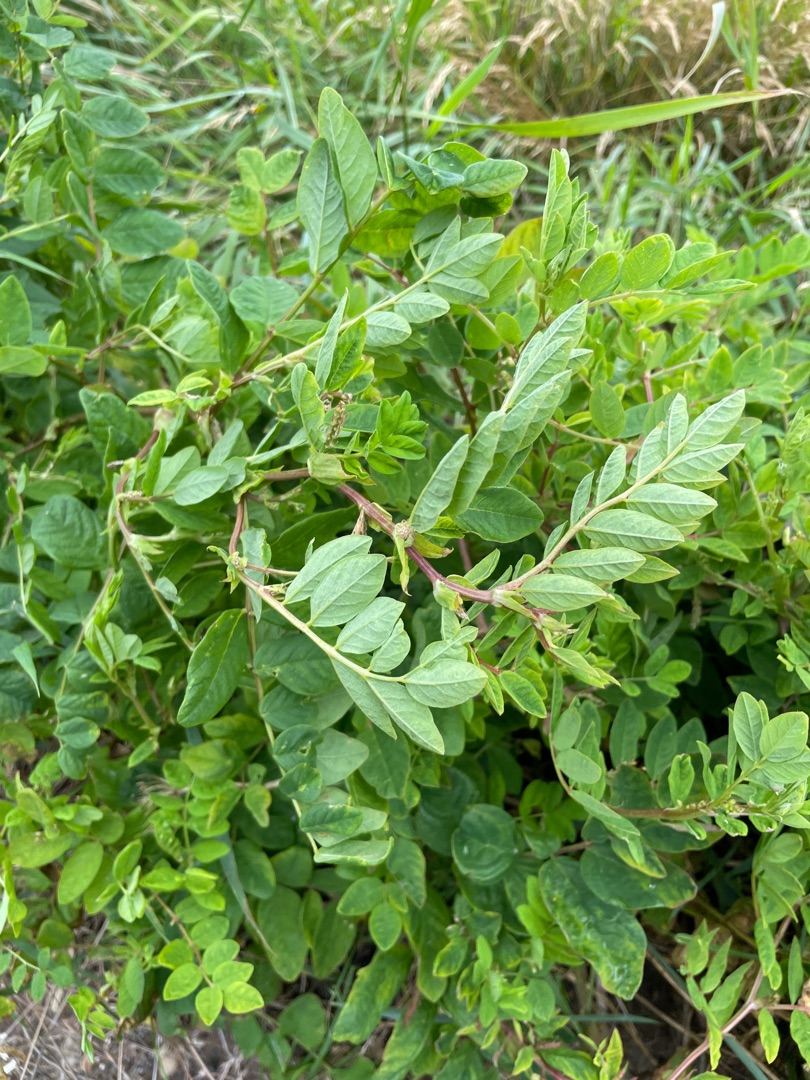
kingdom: Plantae
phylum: Tracheophyta
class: Magnoliopsida
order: Fabales
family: Fabaceae
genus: Astragalus
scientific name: Astragalus glycyphyllos
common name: Sød astragel
